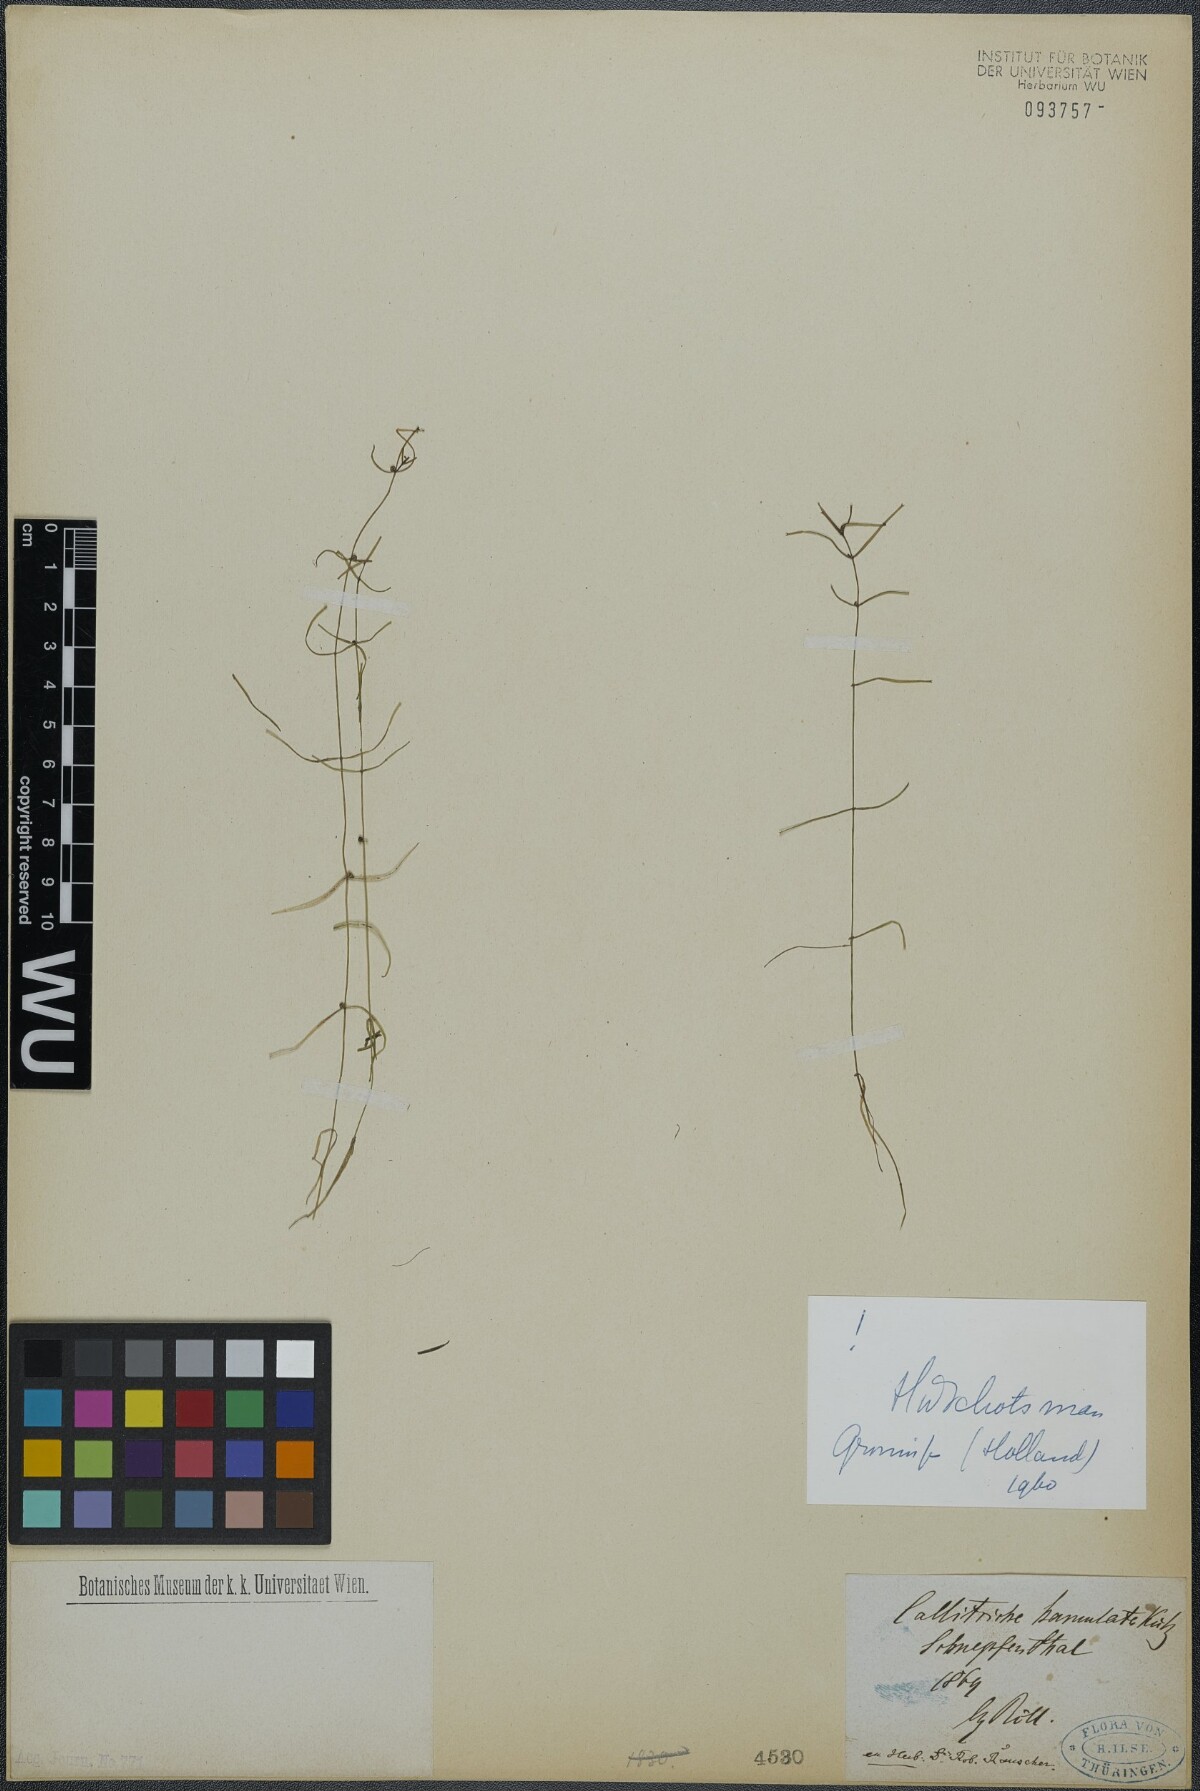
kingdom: Plantae
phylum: Tracheophyta
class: Magnoliopsida
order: Lamiales
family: Plantaginaceae
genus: Callitriche
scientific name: Callitriche hamulata
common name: Intermediate water-starwort
